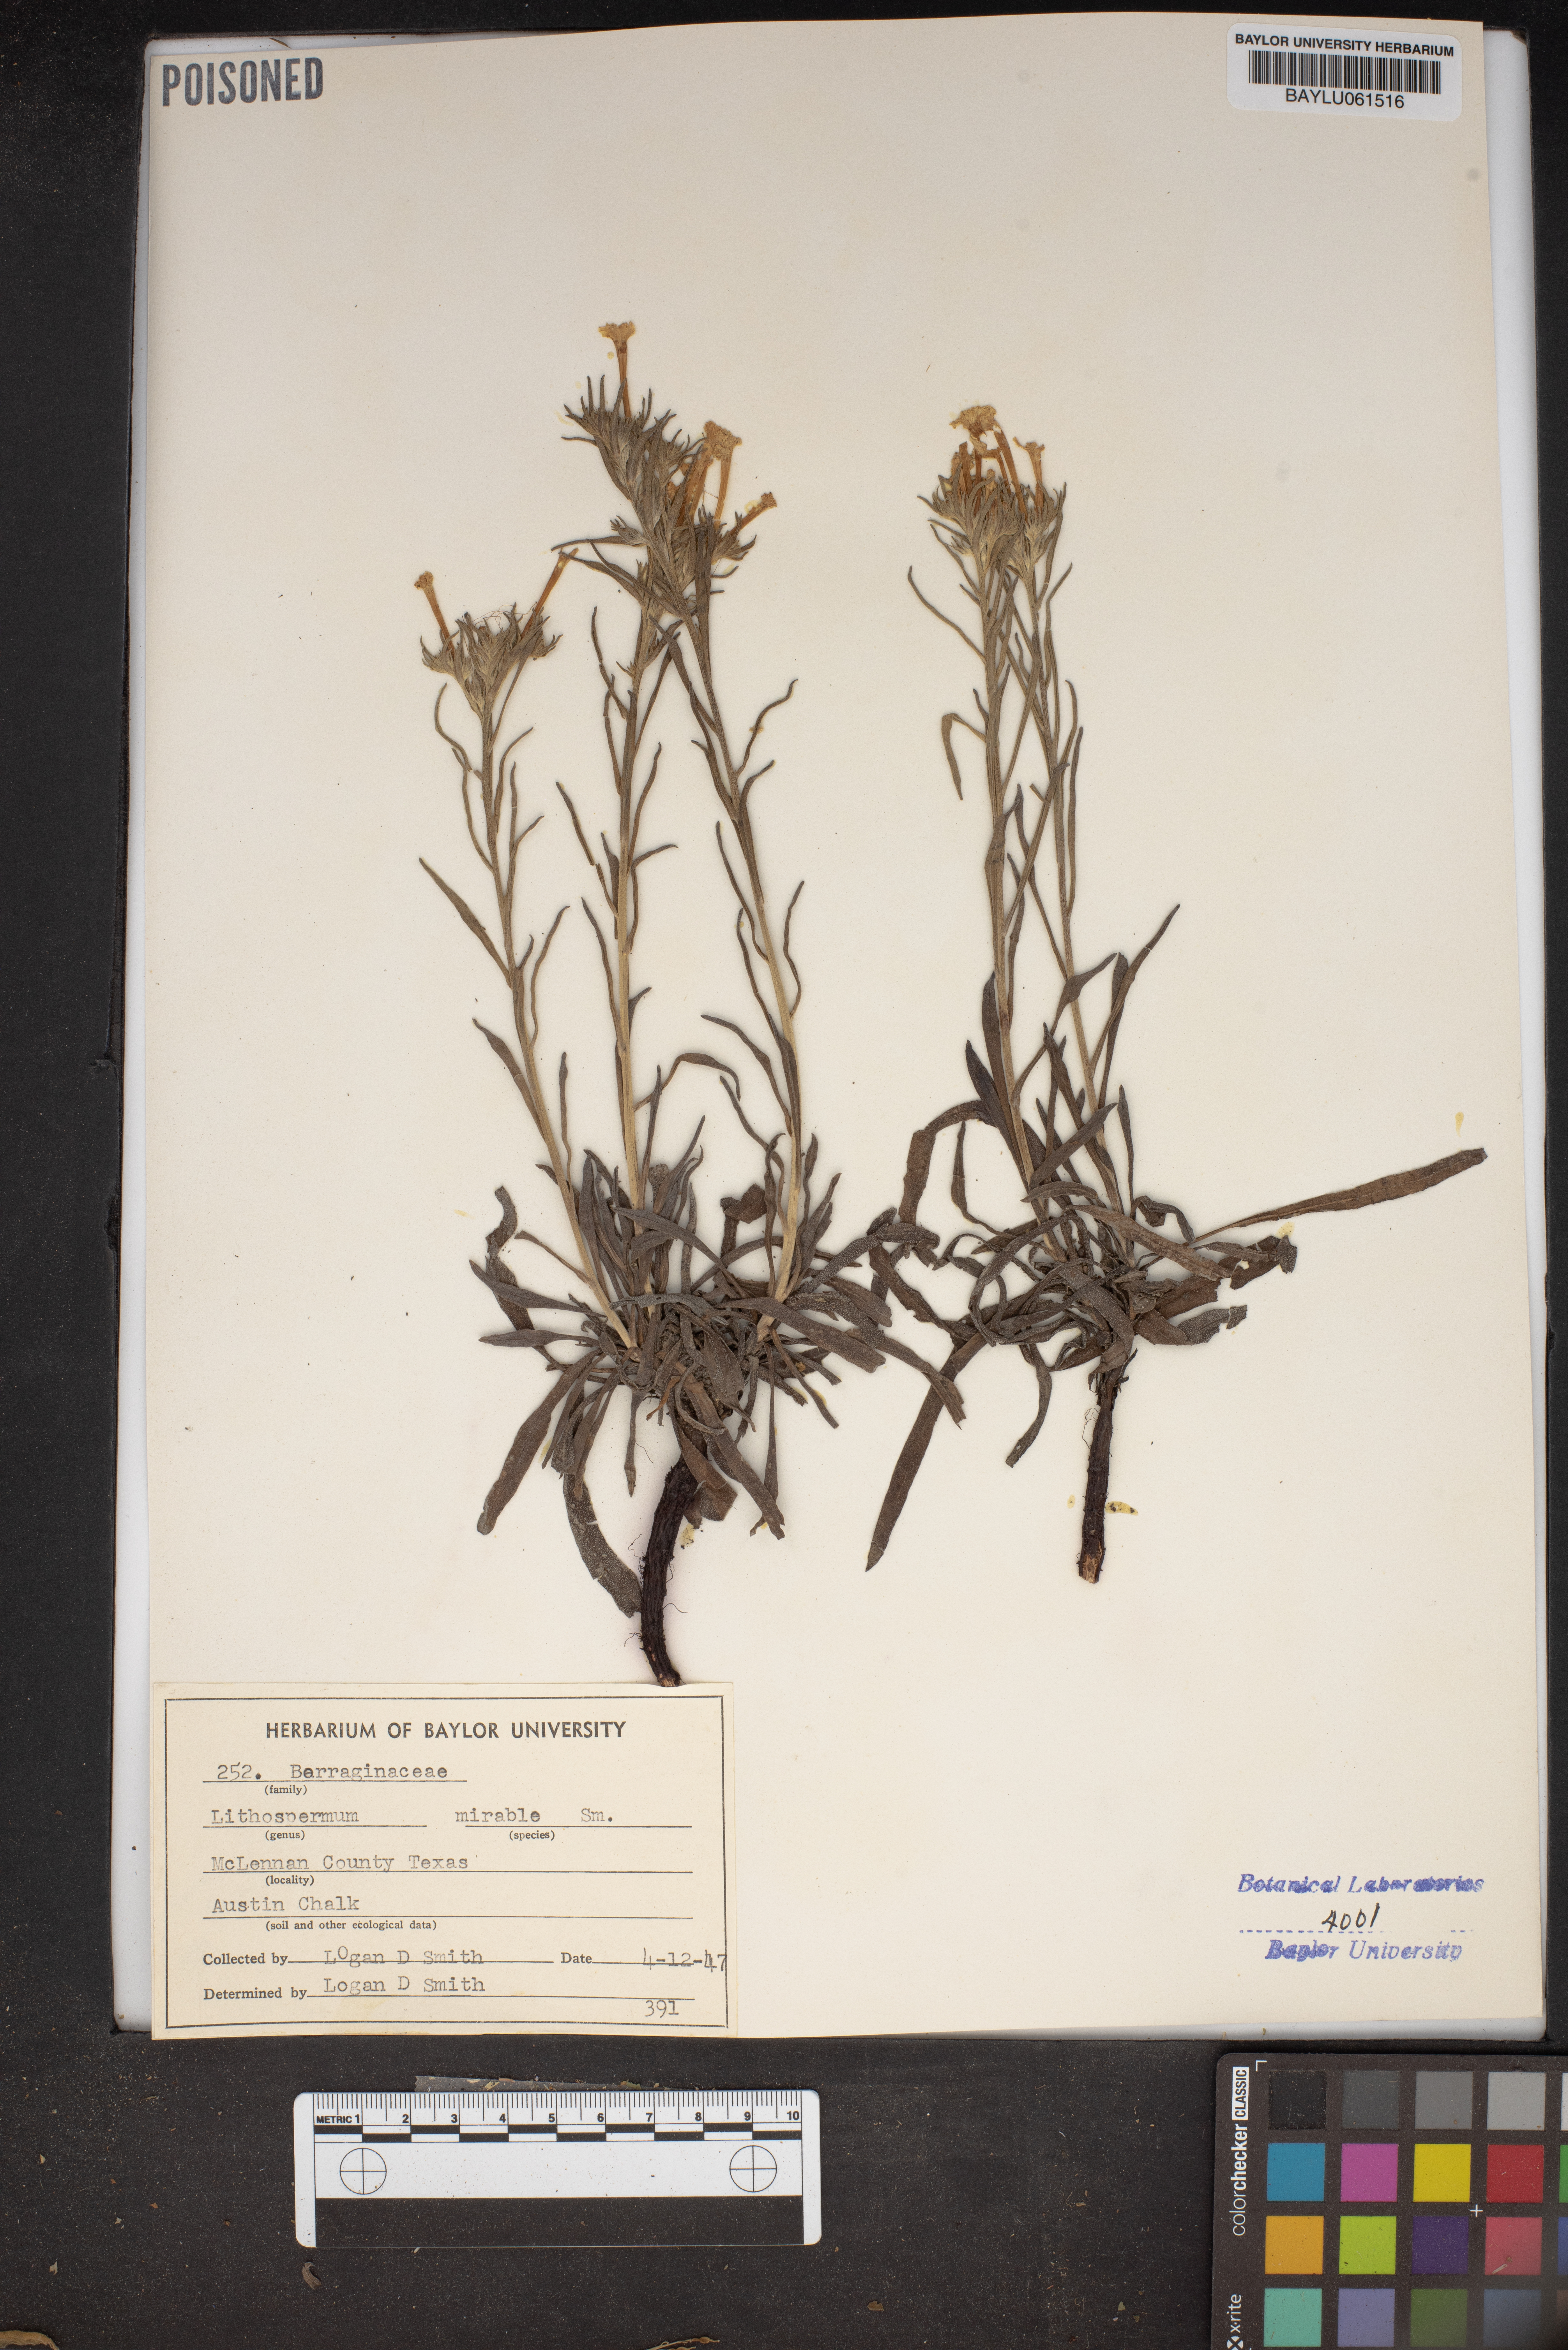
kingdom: Plantae
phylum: Tracheophyta
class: Magnoliopsida
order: Boraginales
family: Boraginaceae
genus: Lithospermum
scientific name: Lithospermum mirabile
